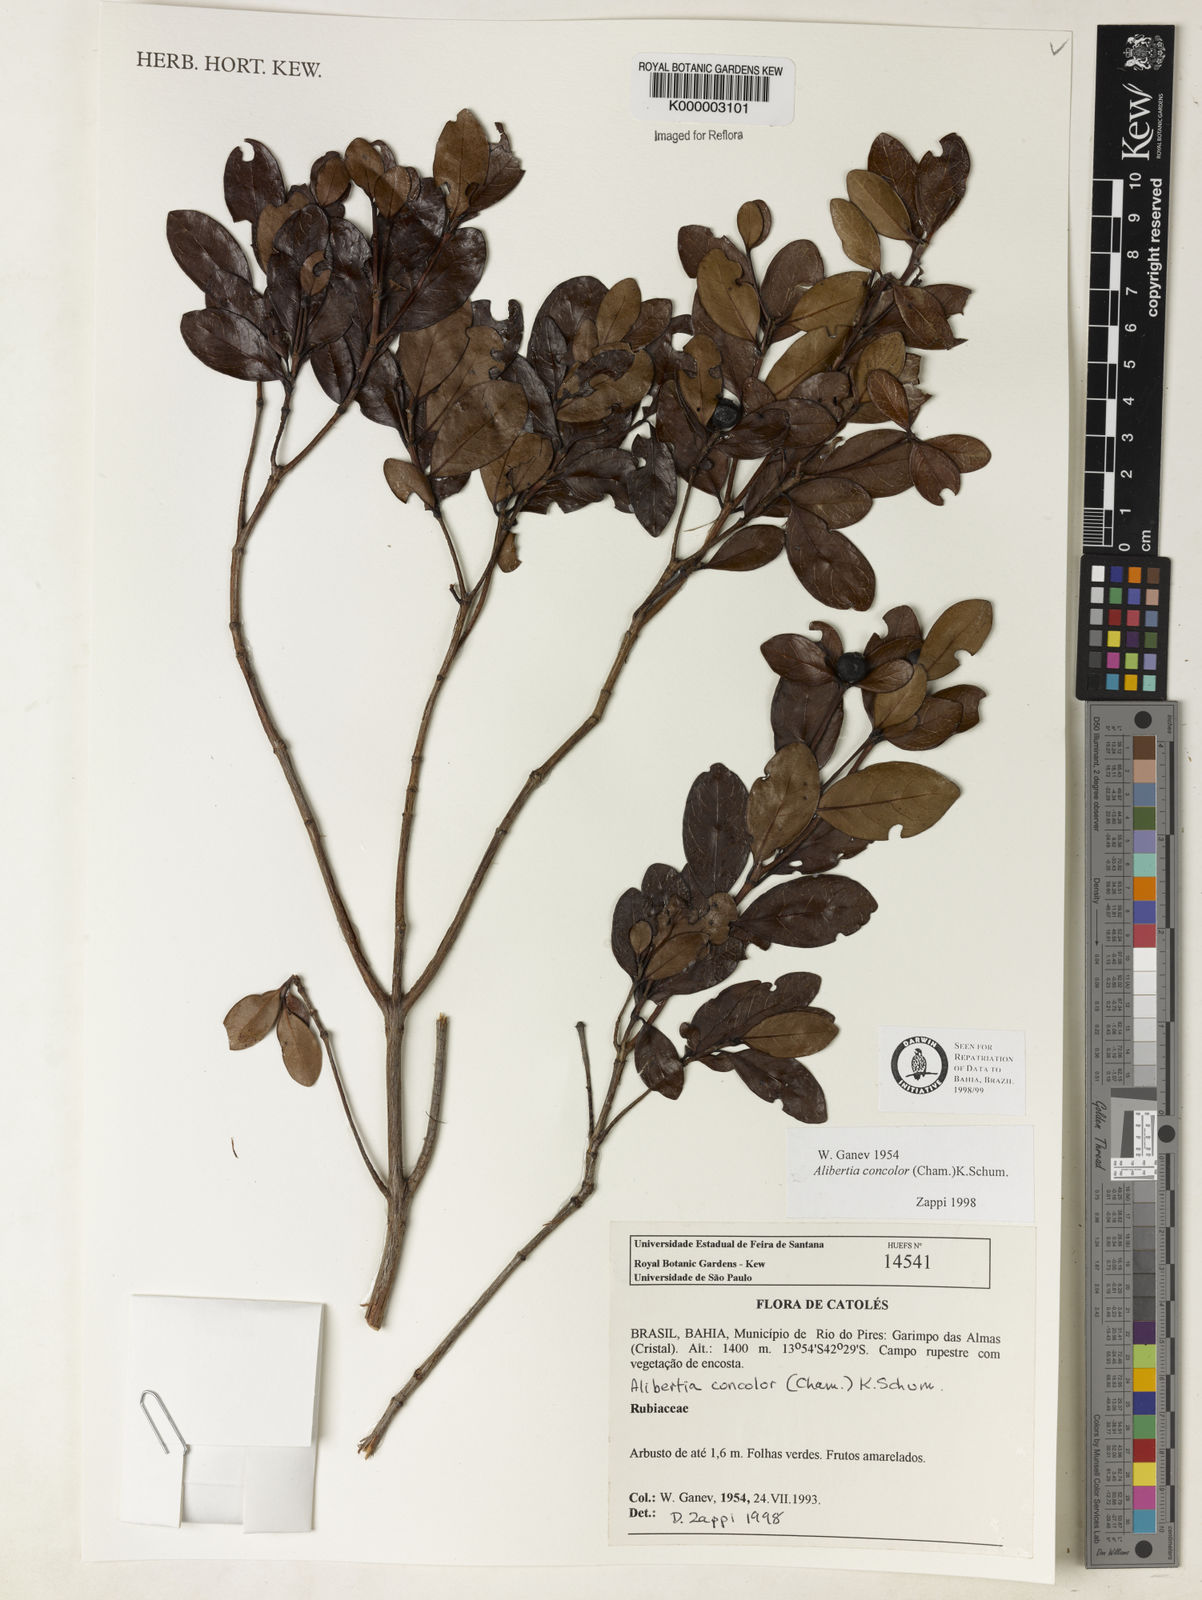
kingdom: Plantae
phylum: Tracheophyta
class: Magnoliopsida
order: Gentianales
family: Rubiaceae
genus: Cordiera
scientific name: Cordiera concolor
